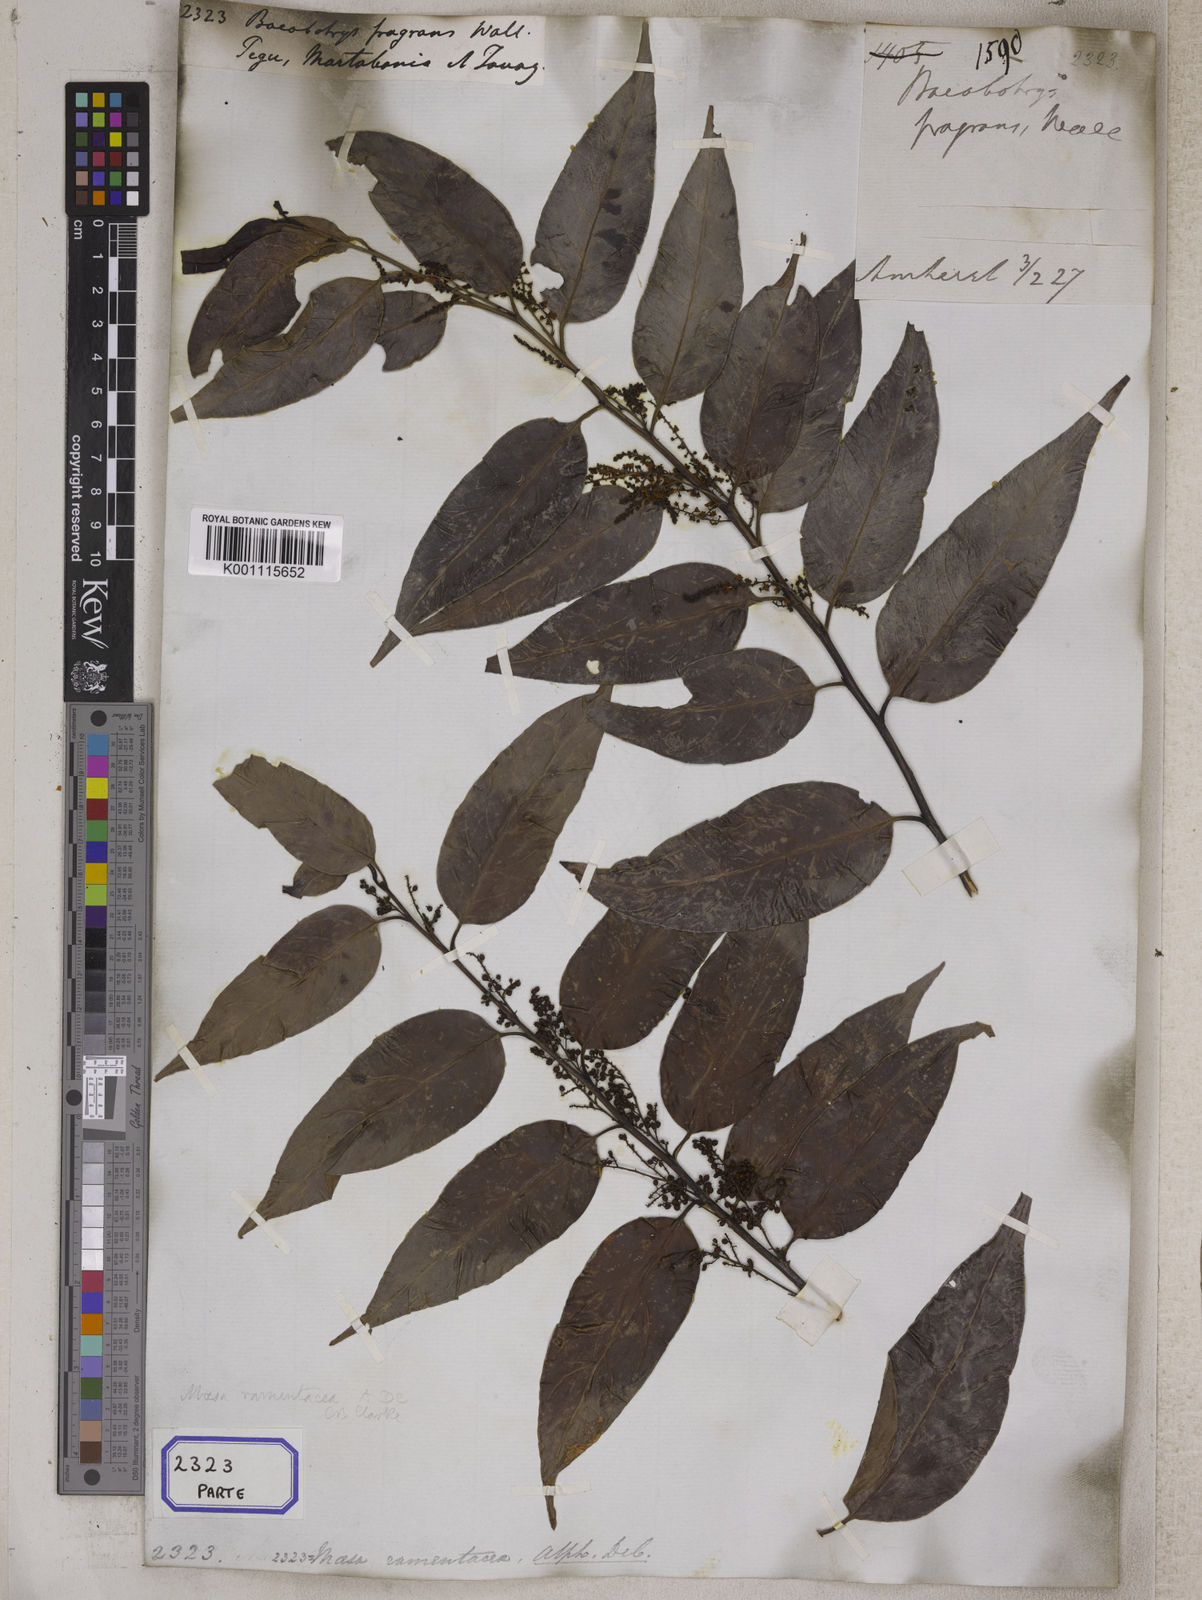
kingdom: Plantae
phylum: Tracheophyta
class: Magnoliopsida
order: Ericales
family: Primulaceae
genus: Maesa
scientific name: Maesa
